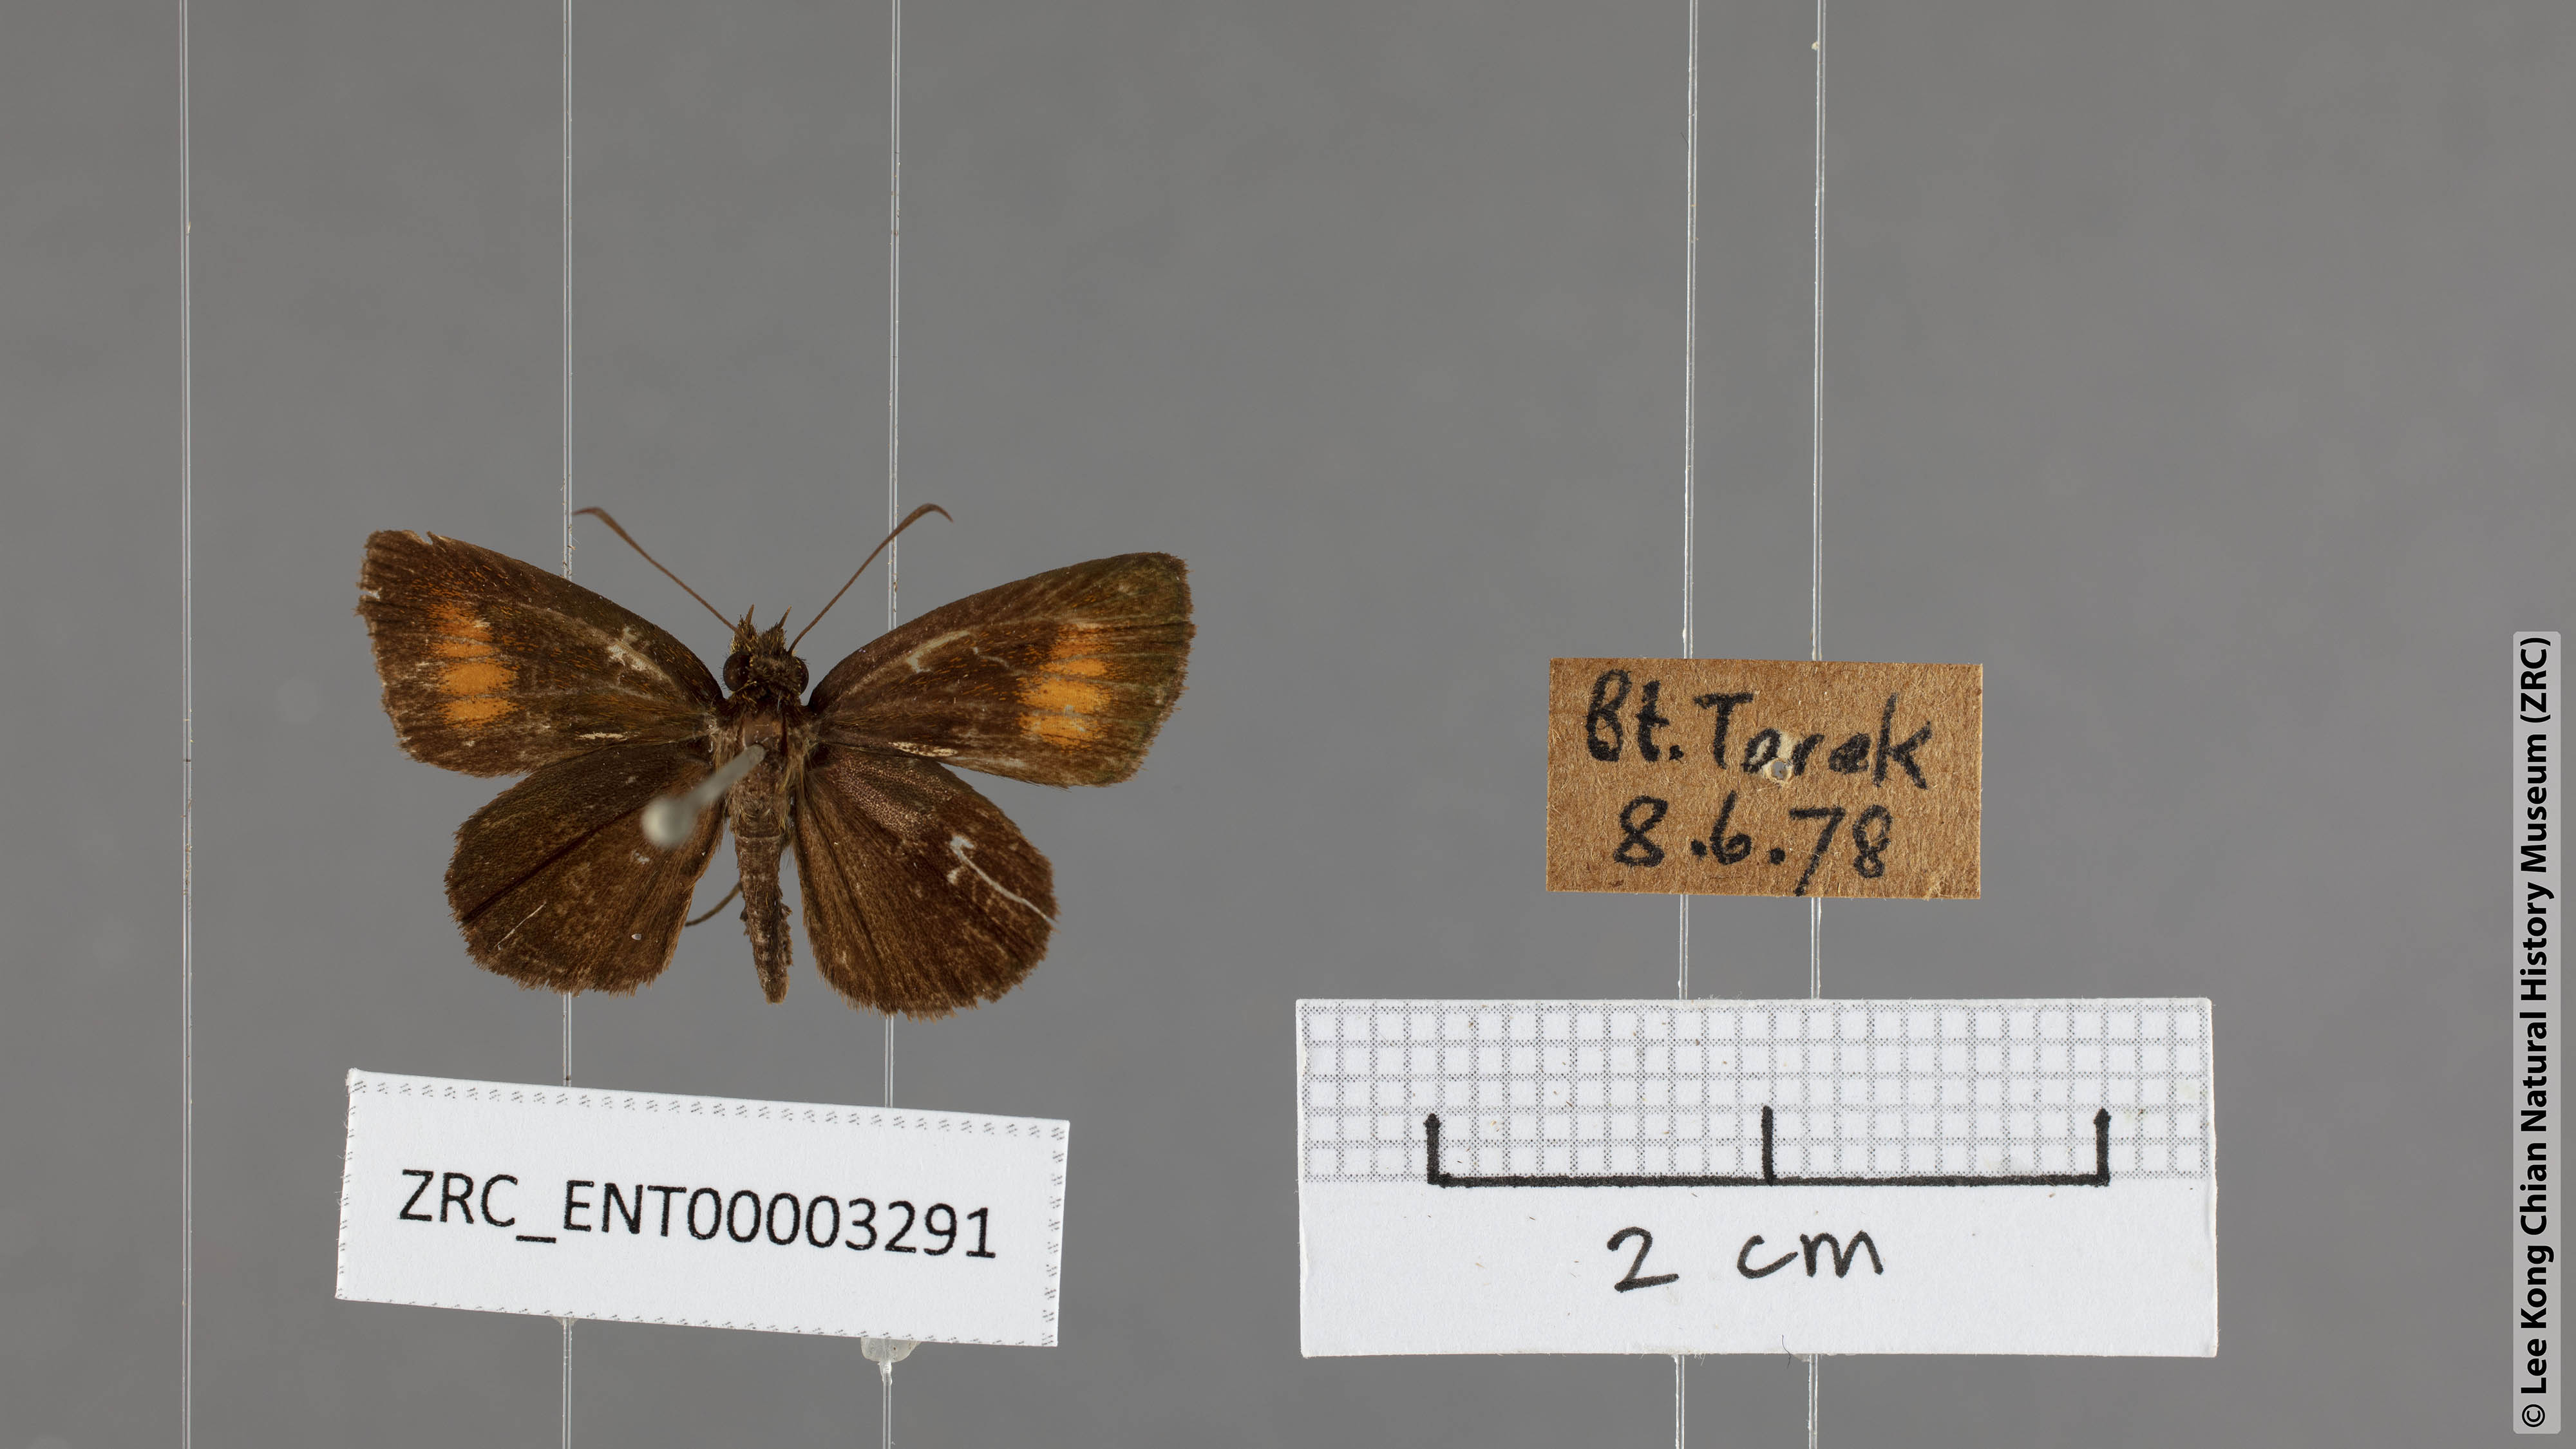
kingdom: Animalia
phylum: Arthropoda
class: Insecta
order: Lepidoptera
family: Hesperiidae
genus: Iambrix
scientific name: Iambrix Idmon obliquans
